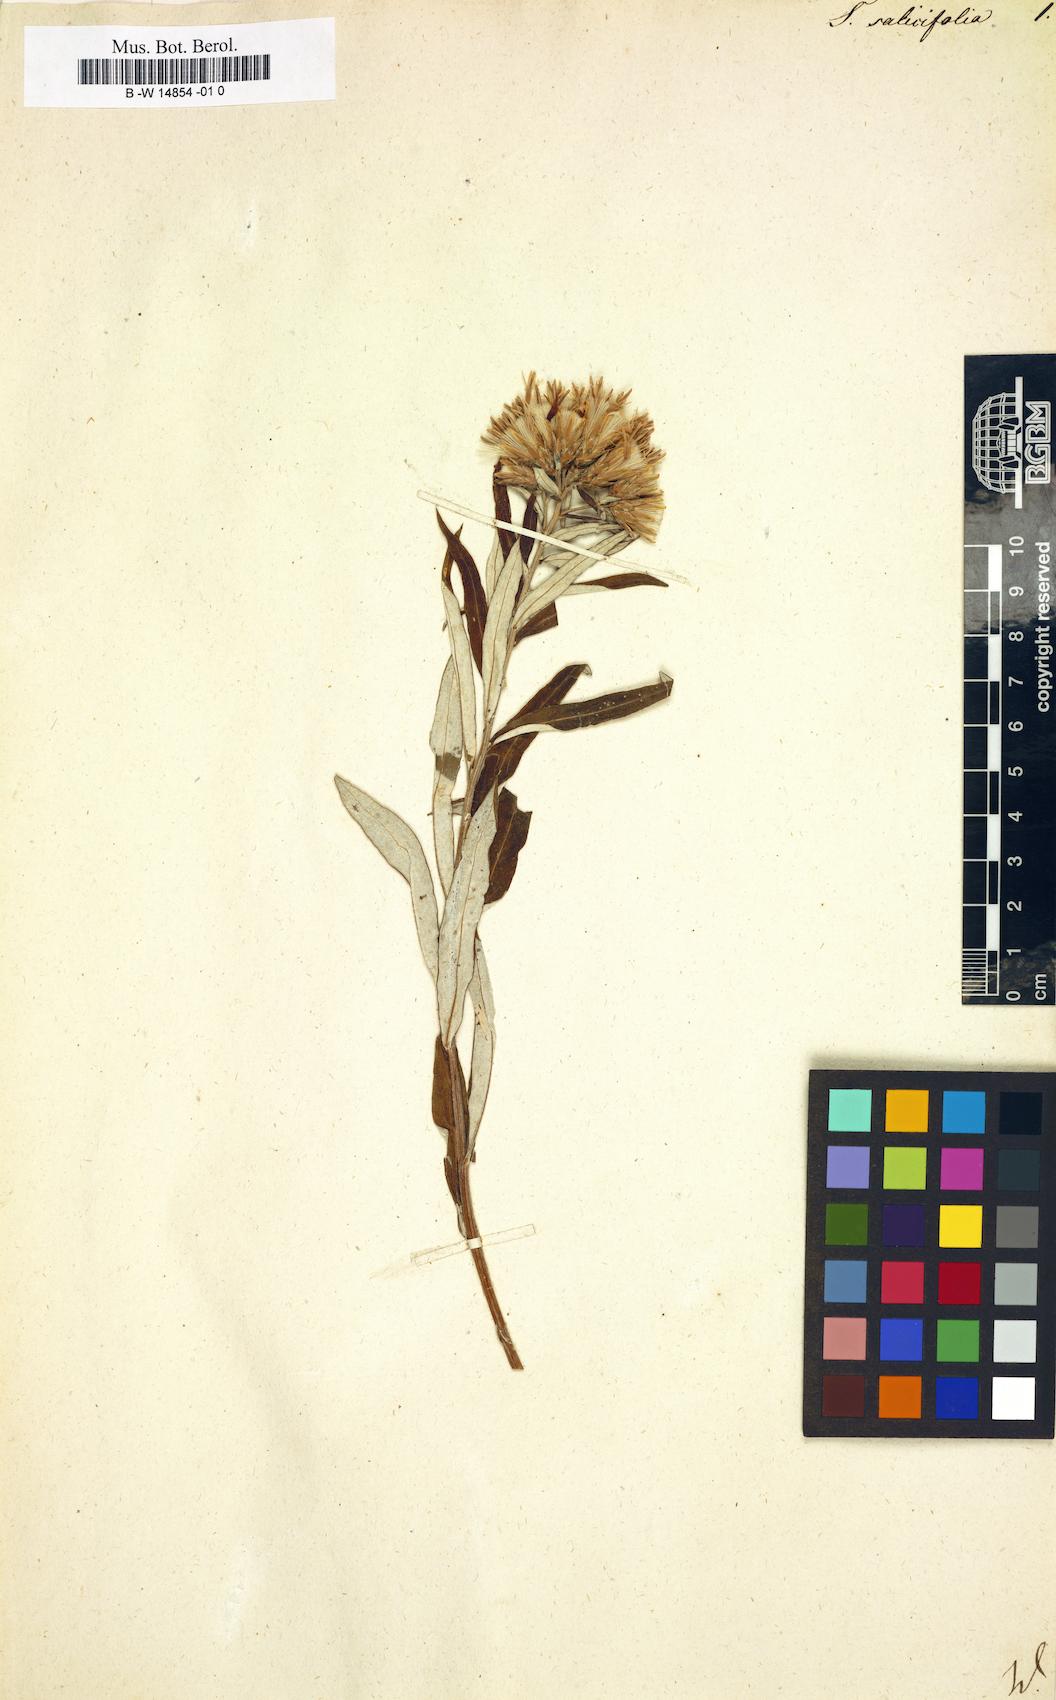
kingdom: Plantae
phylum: Tracheophyta
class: Magnoliopsida
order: Asterales
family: Asteraceae
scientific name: Asteraceae
